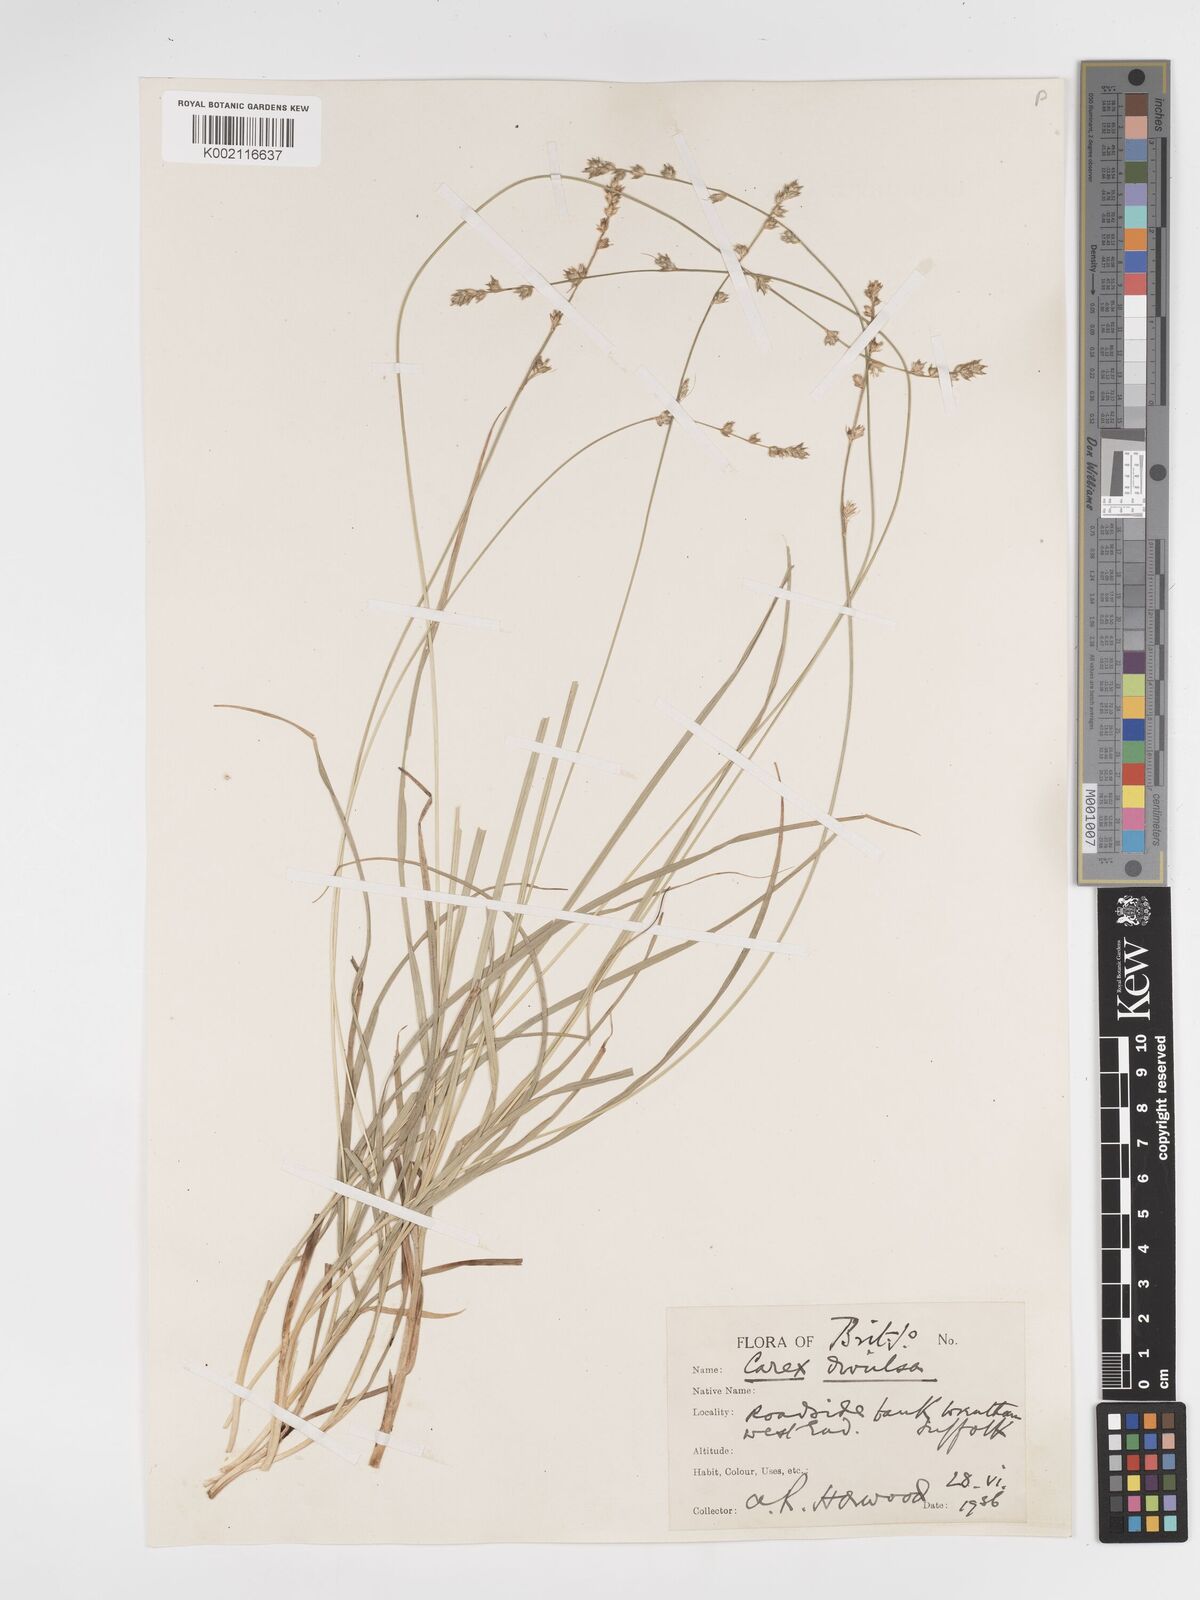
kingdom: Plantae
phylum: Tracheophyta
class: Liliopsida
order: Poales
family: Cyperaceae
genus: Carex
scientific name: Carex divulsa
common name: Grassland sedge
